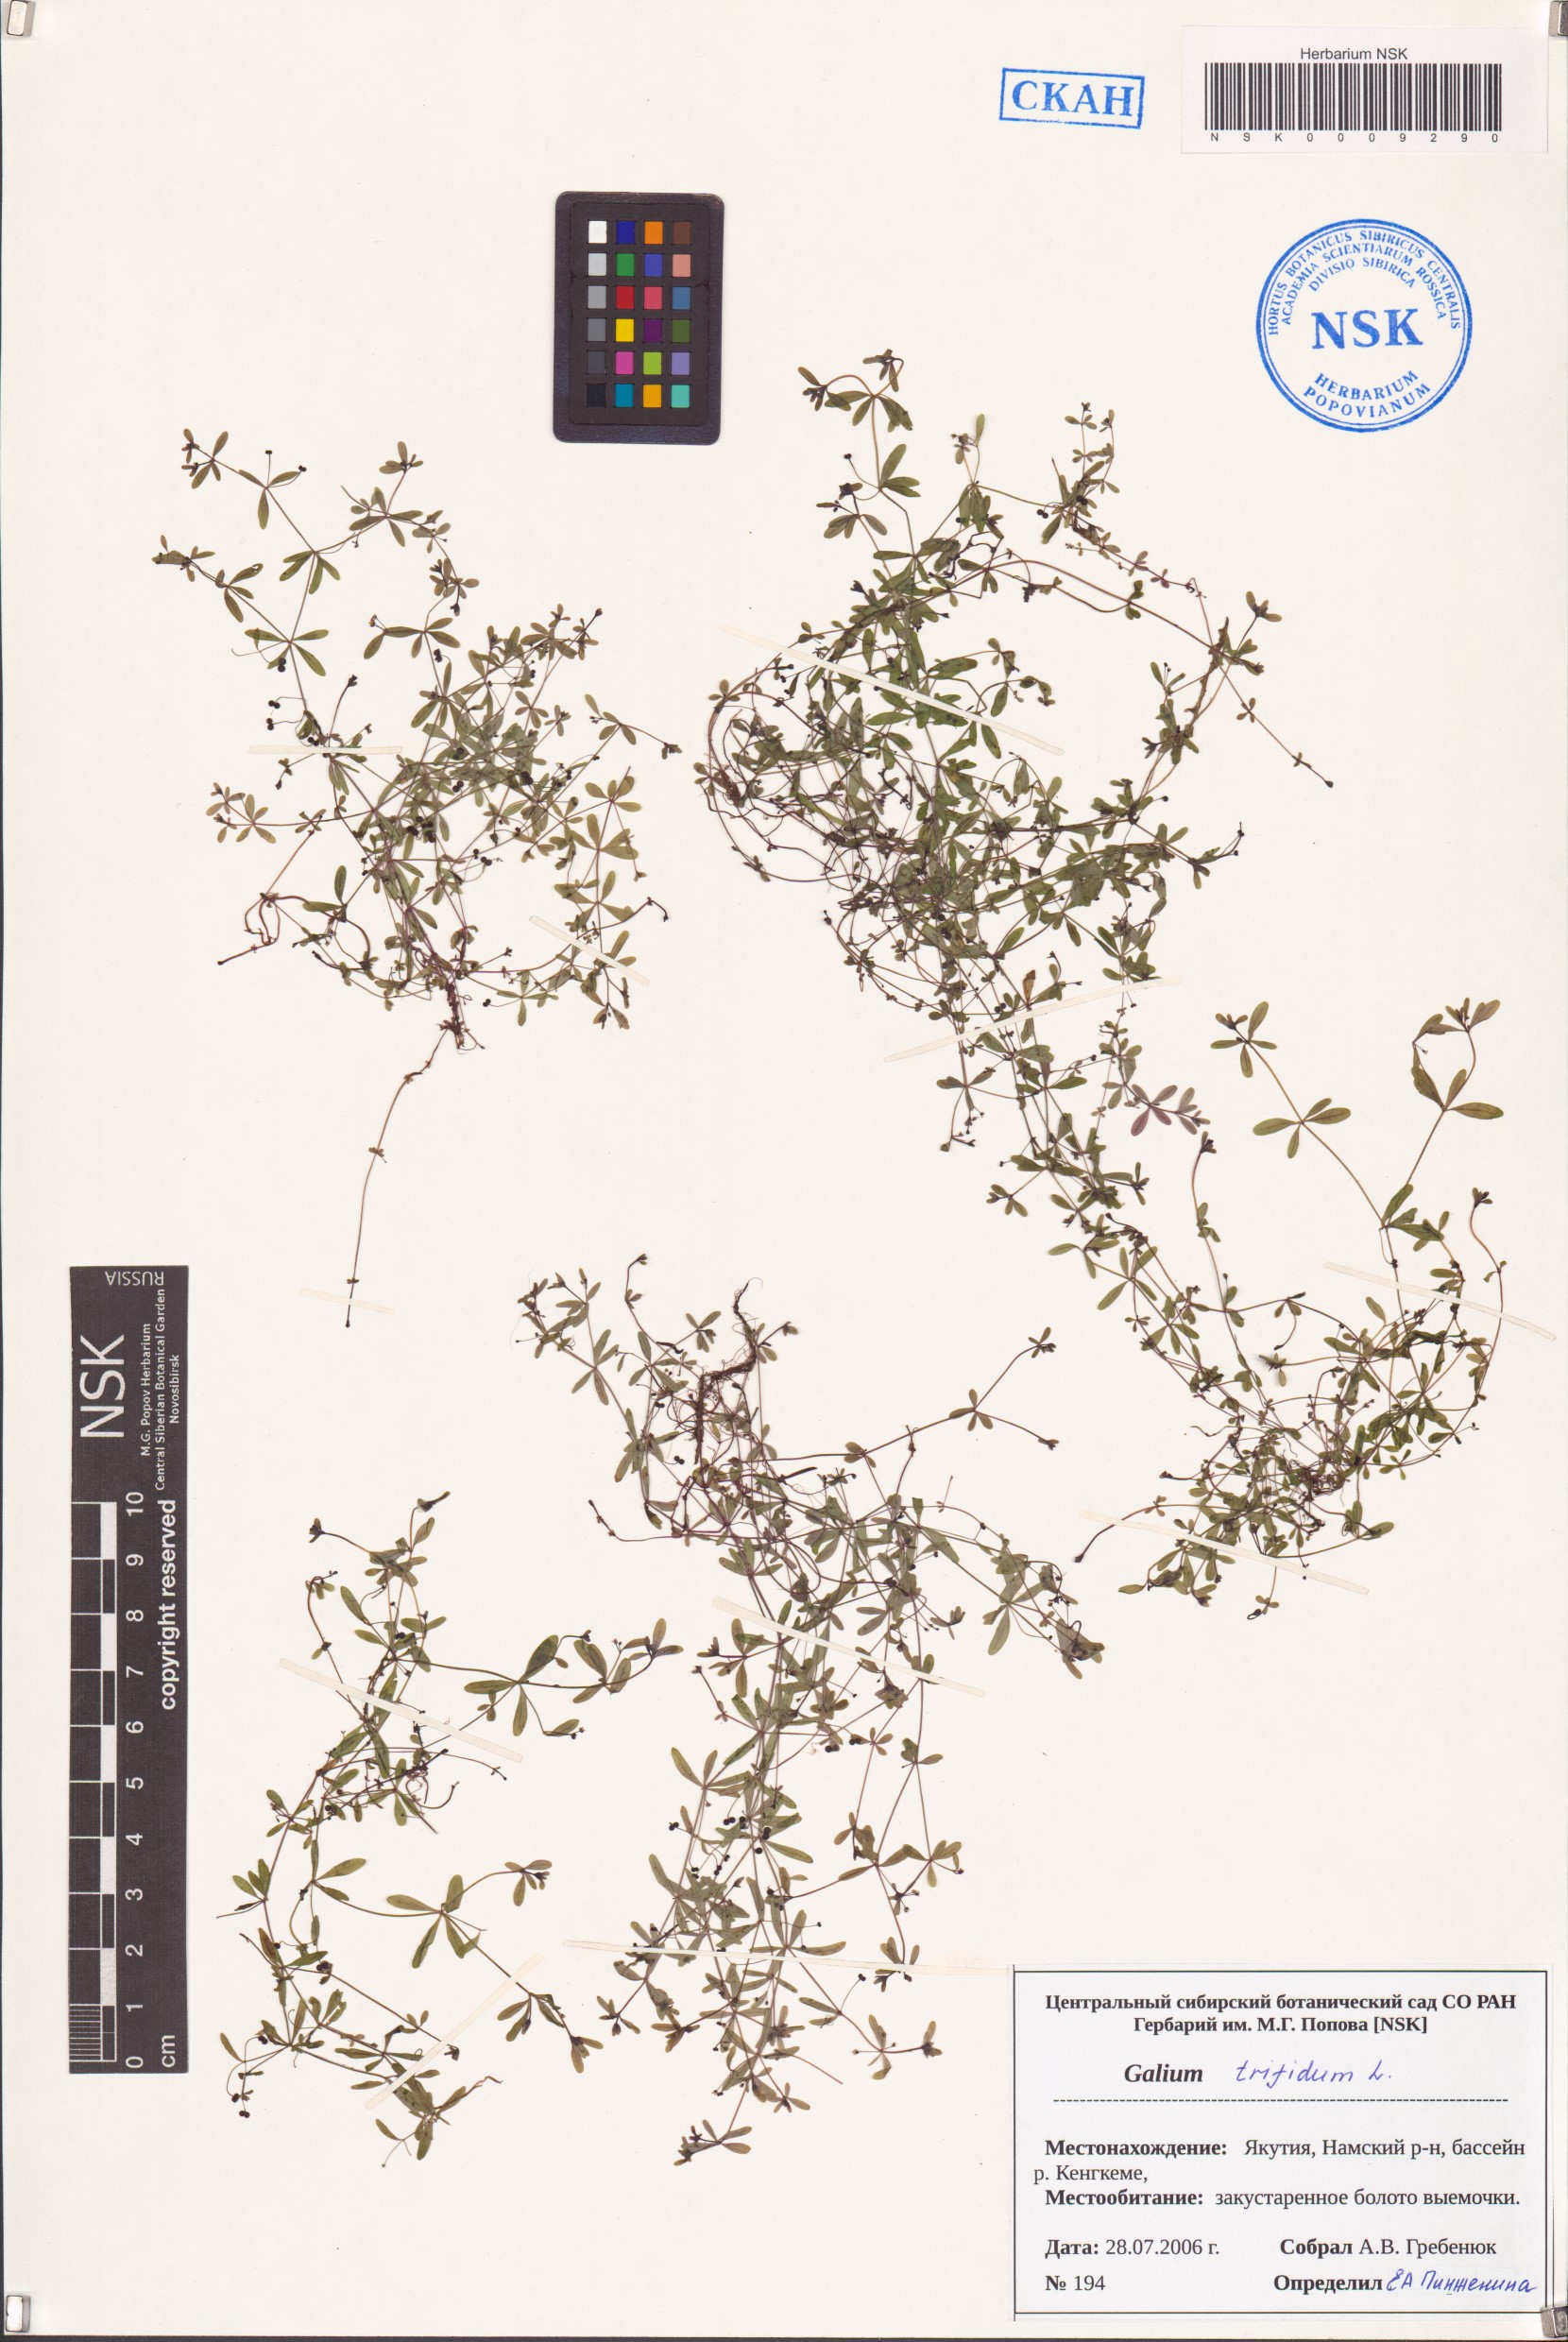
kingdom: Plantae
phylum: Tracheophyta
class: Magnoliopsida
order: Gentianales
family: Rubiaceae
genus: Galium
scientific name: Galium trifidum
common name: Small bedstraw
